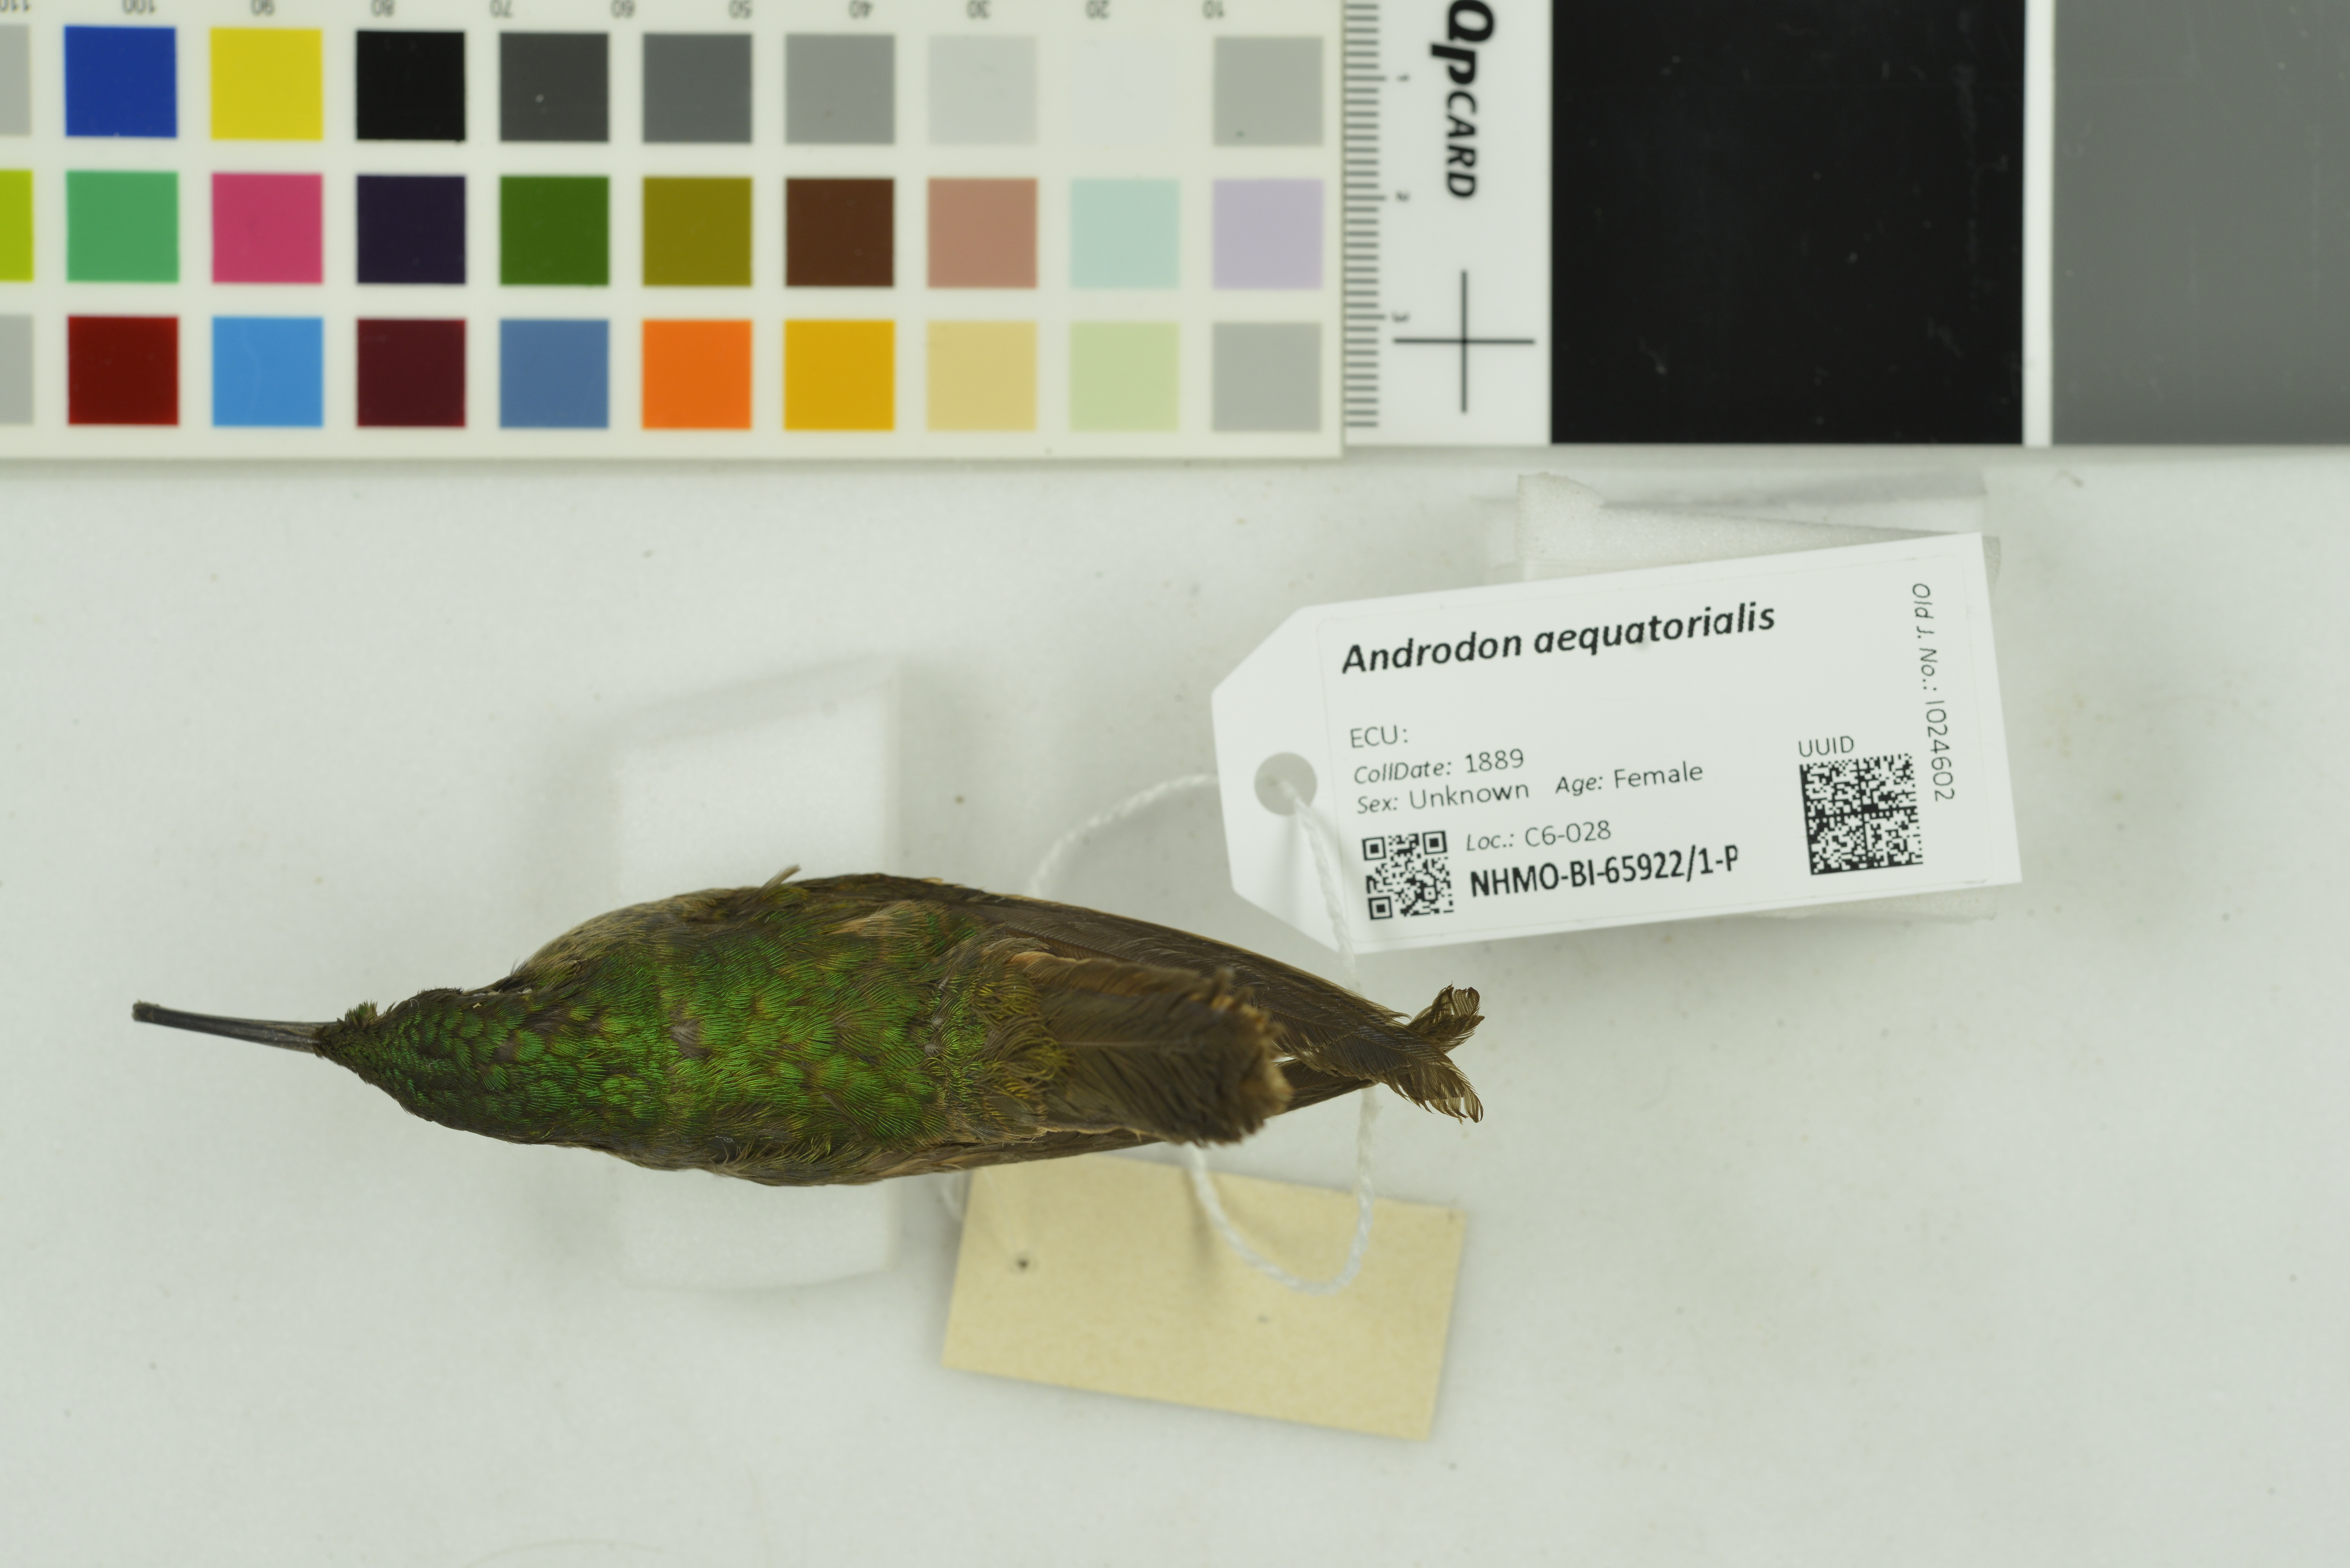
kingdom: Animalia
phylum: Chordata
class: Aves
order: Apodiformes
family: Trochilidae
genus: Androdon
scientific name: Androdon aequatorialis
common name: Tooth-billed hummingbird
